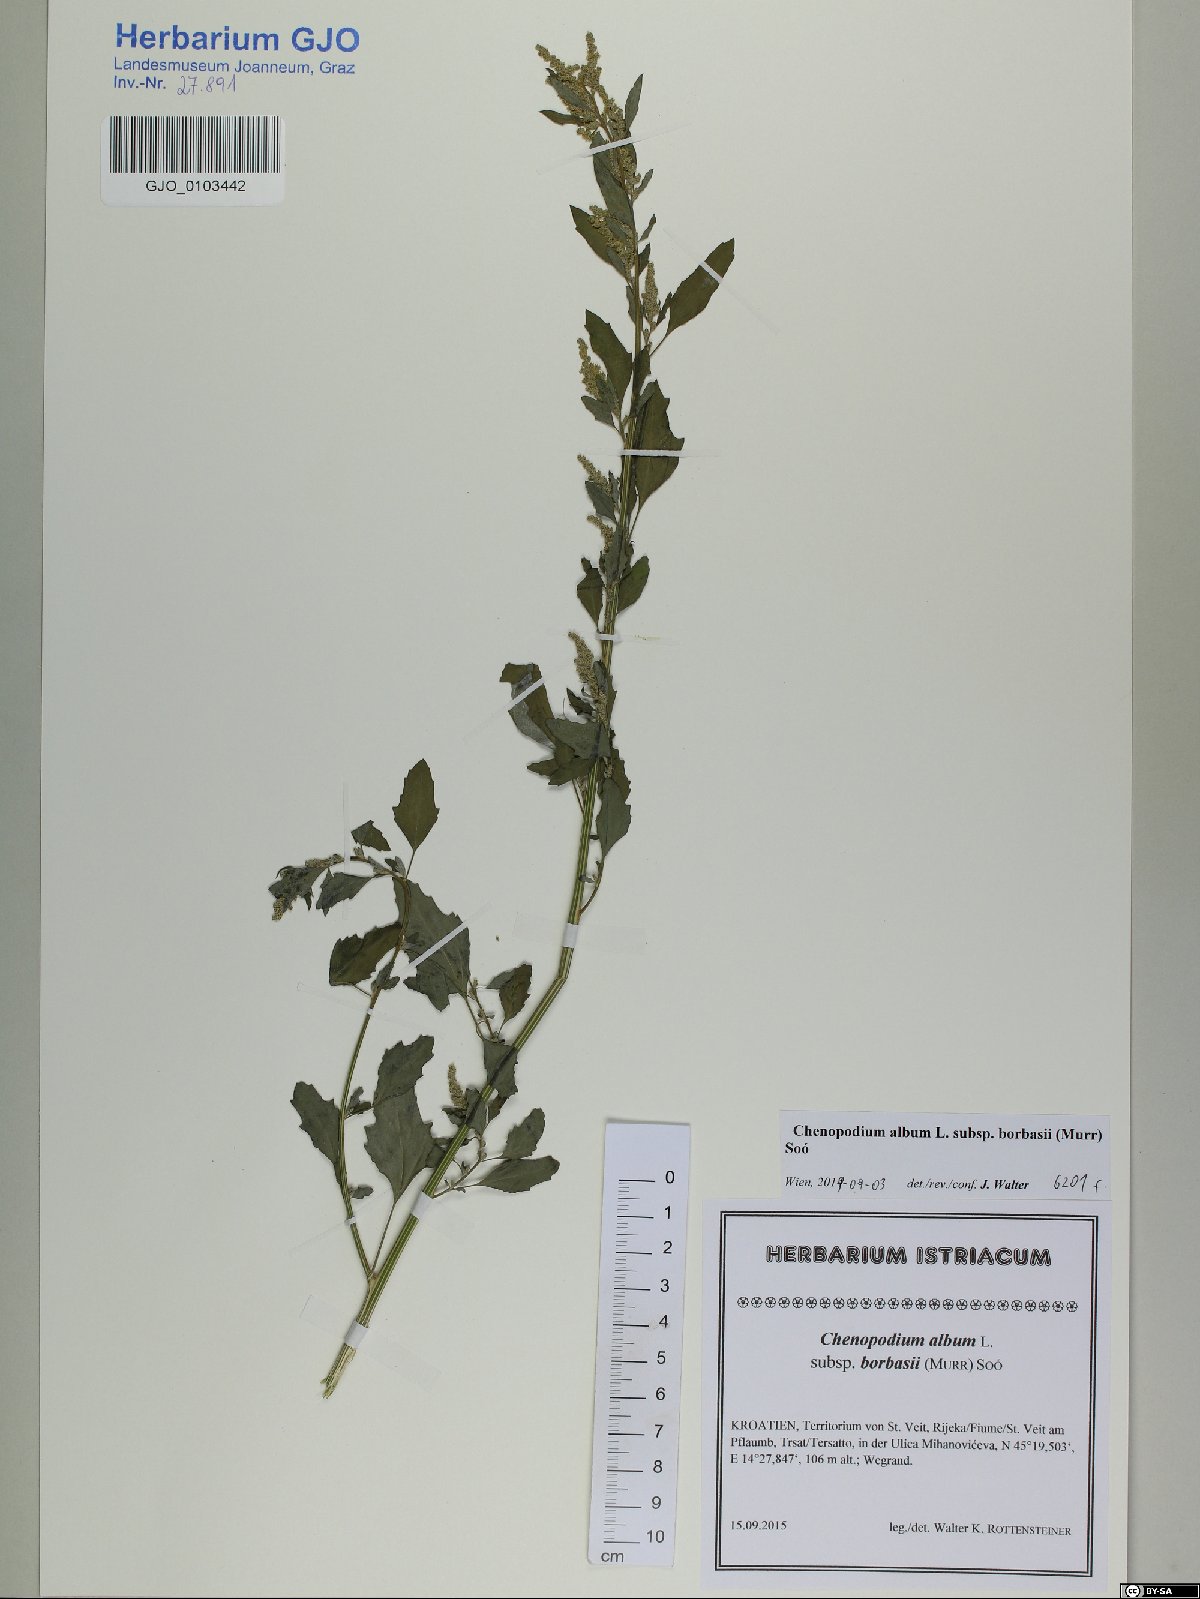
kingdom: Plantae
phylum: Tracheophyta
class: Magnoliopsida
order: Caryophyllales
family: Amaranthaceae
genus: Chenopodium
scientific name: Chenopodium borbasii
